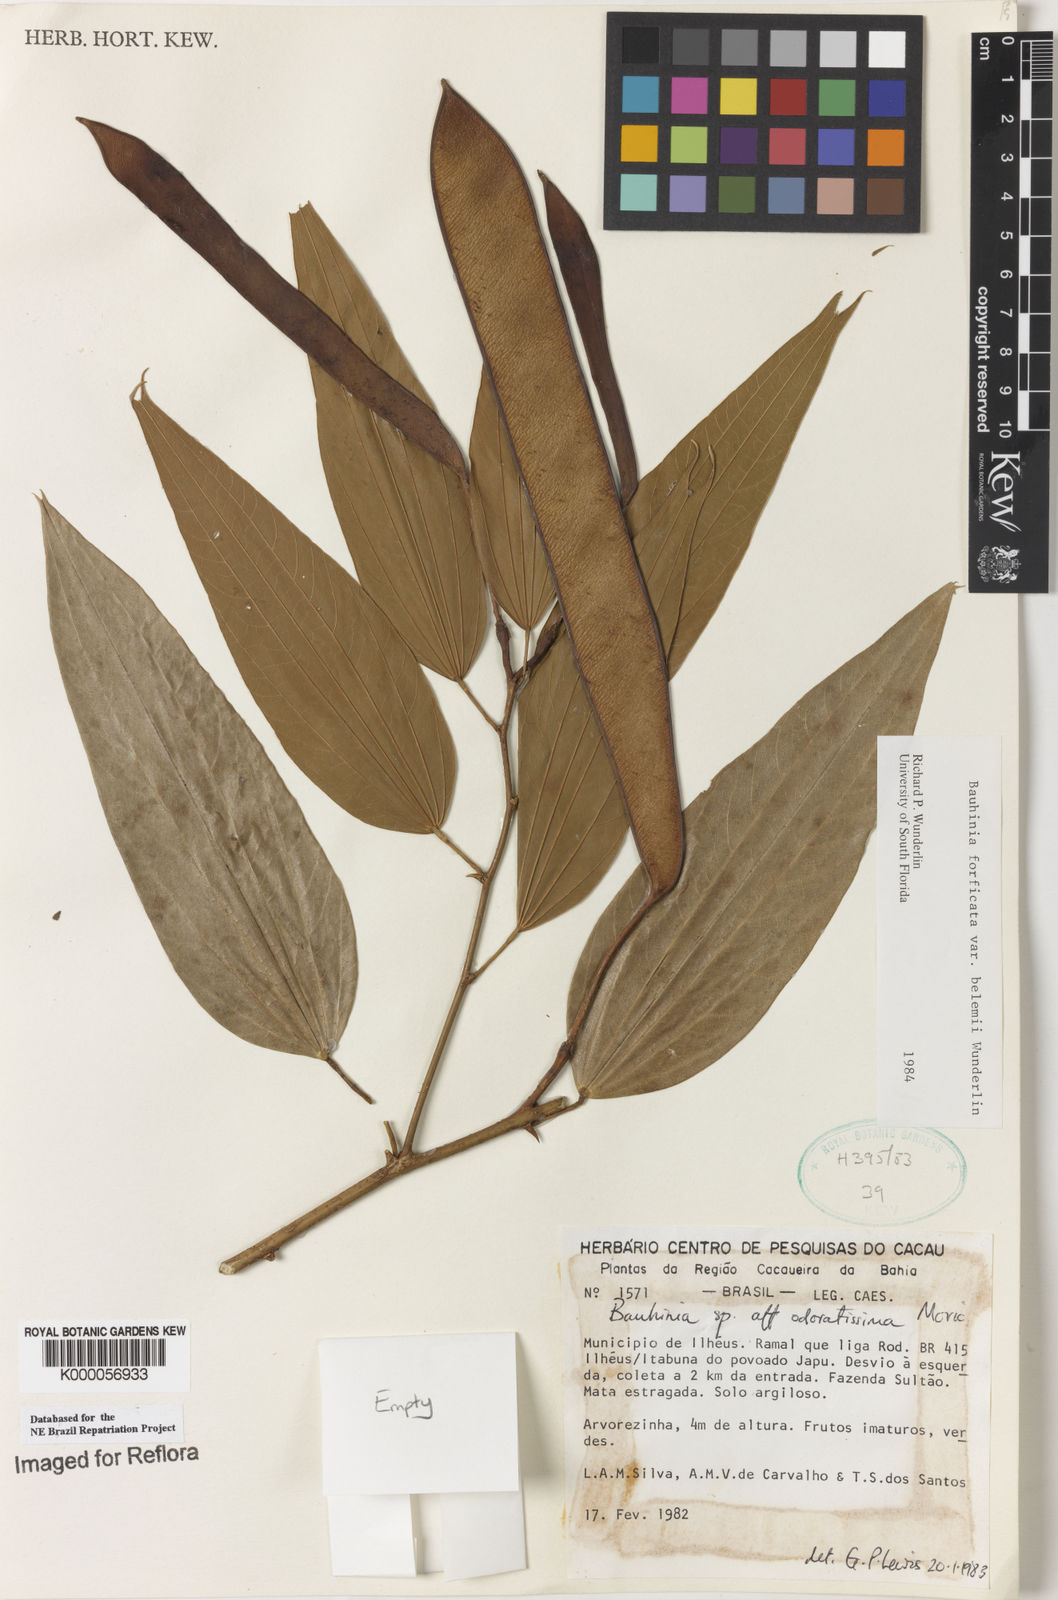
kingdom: Plantae
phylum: Tracheophyta
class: Magnoliopsida
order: Fabales
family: Fabaceae
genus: Bauhinia
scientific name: Bauhinia forficata
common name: Orchid tree
